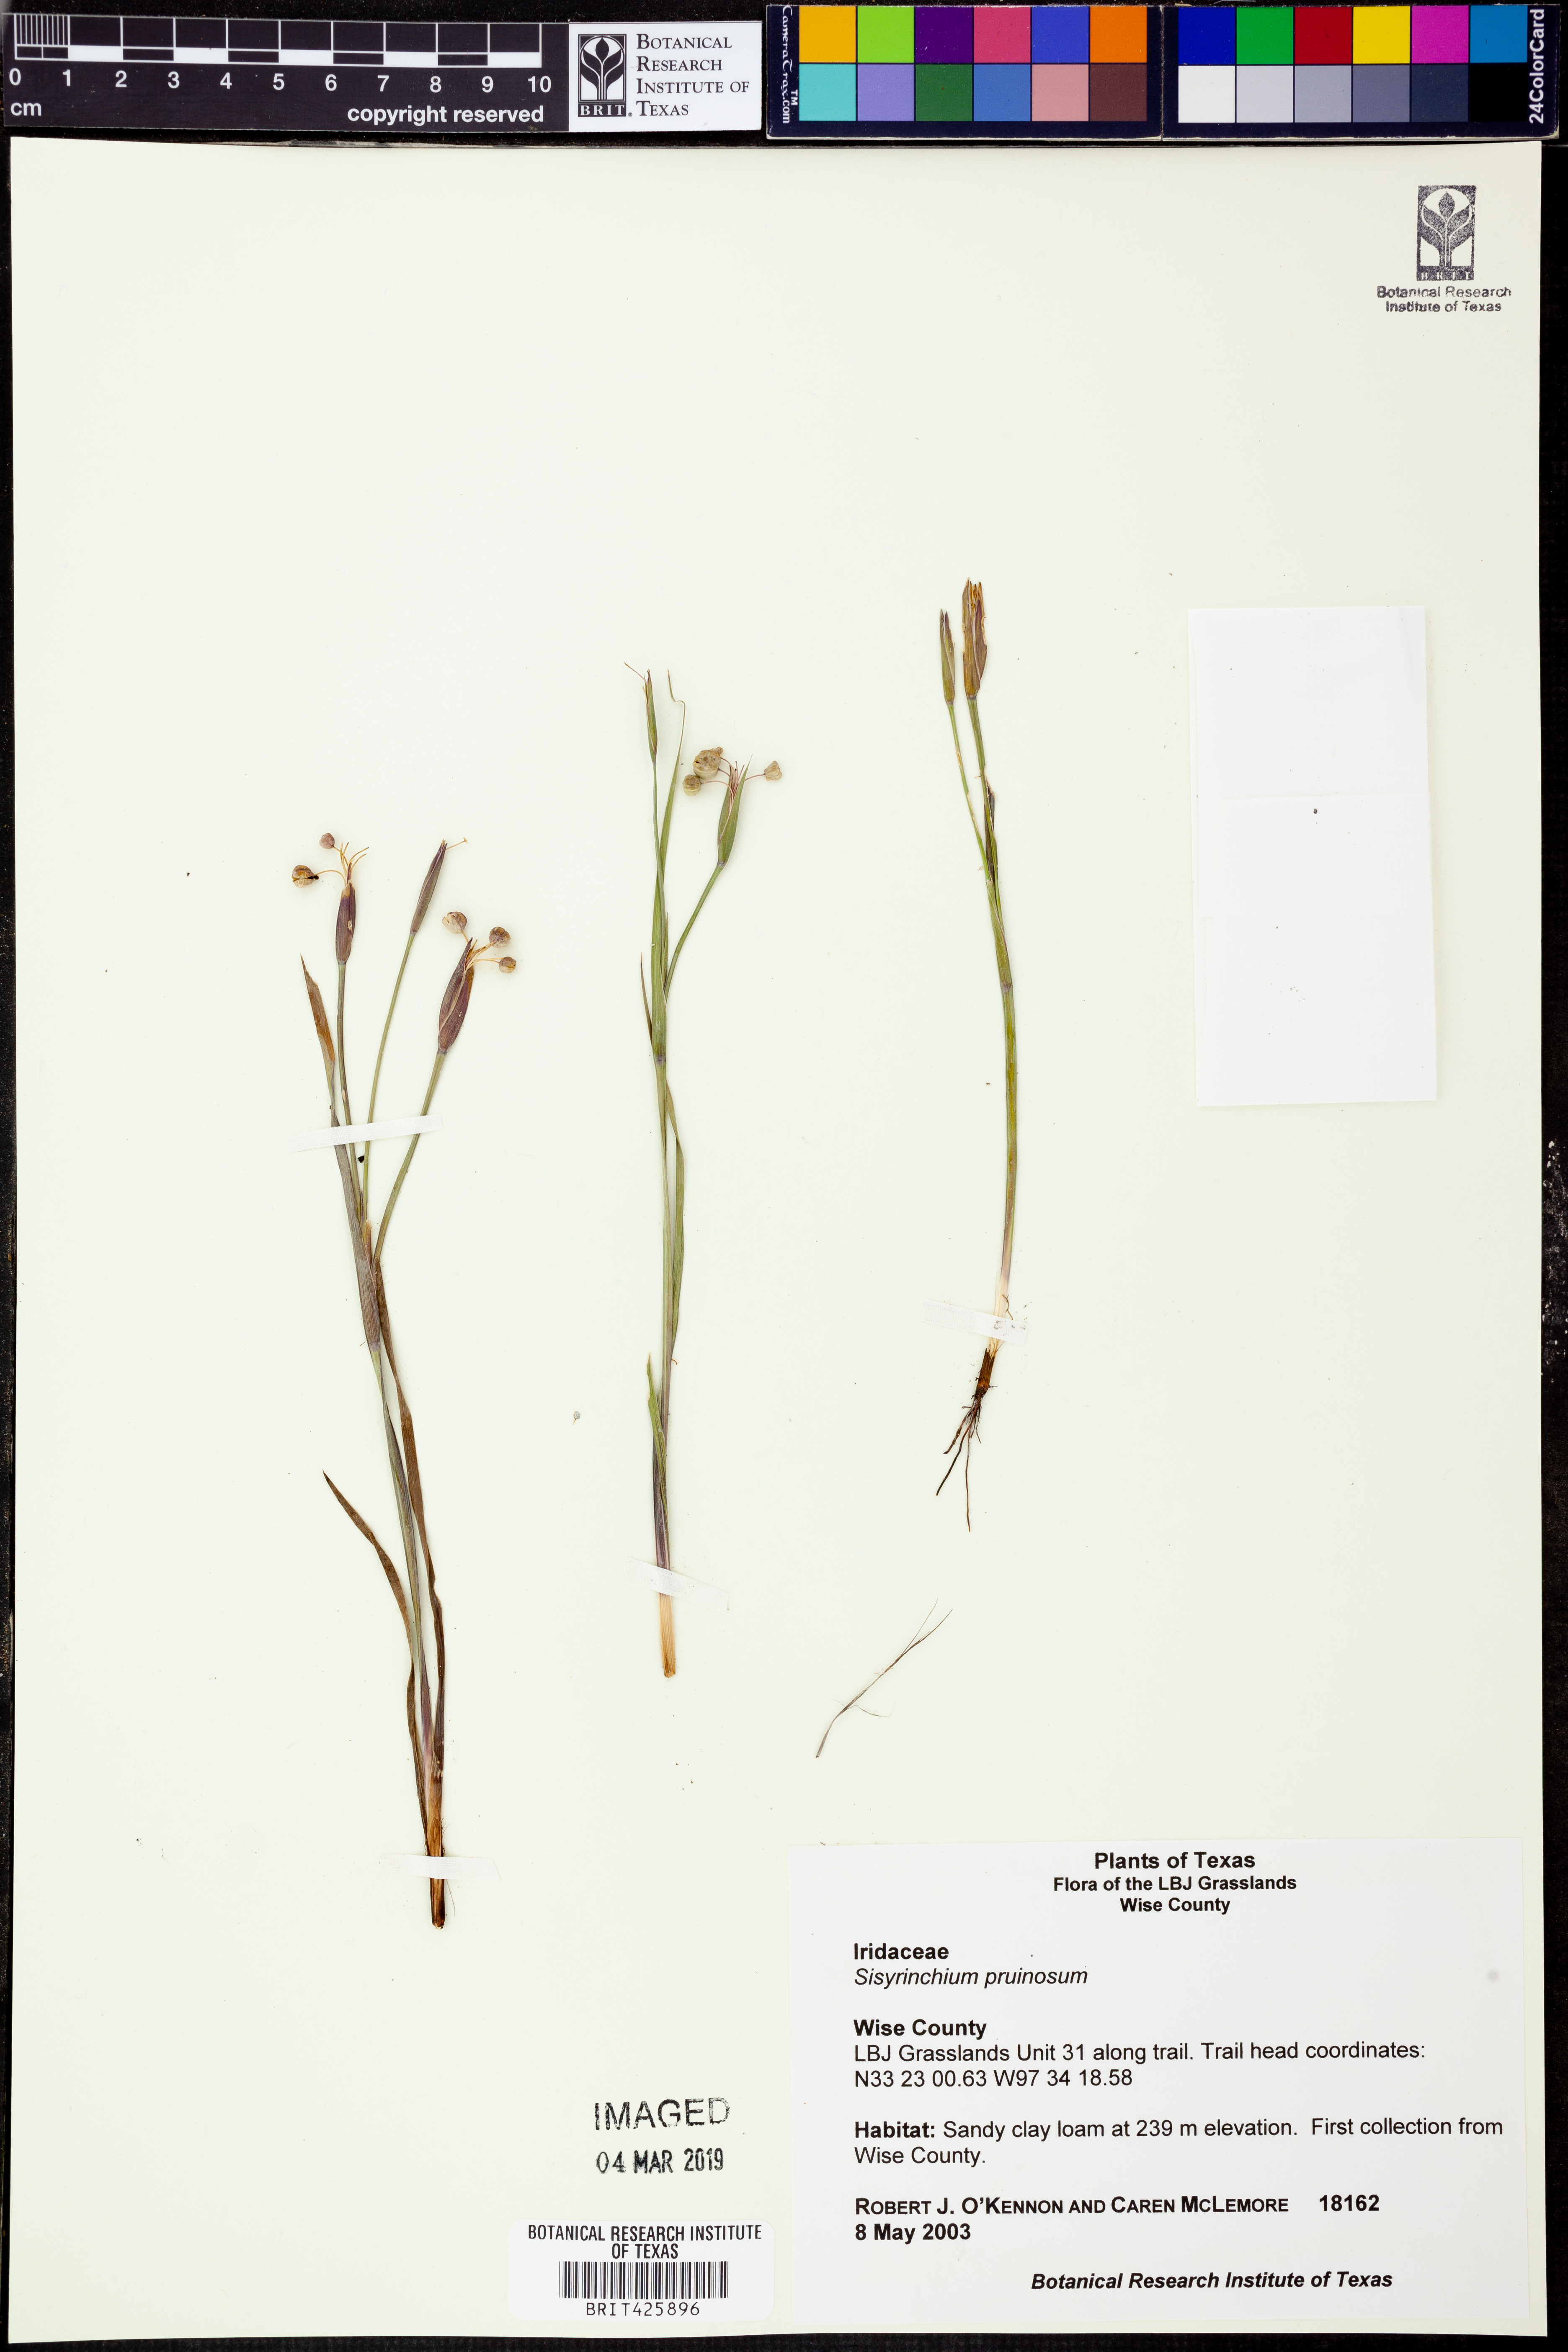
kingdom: Plantae
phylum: Tracheophyta
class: Liliopsida
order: Asparagales
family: Iridaceae
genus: Sisyrinchium
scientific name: Sisyrinchium pruinosum
